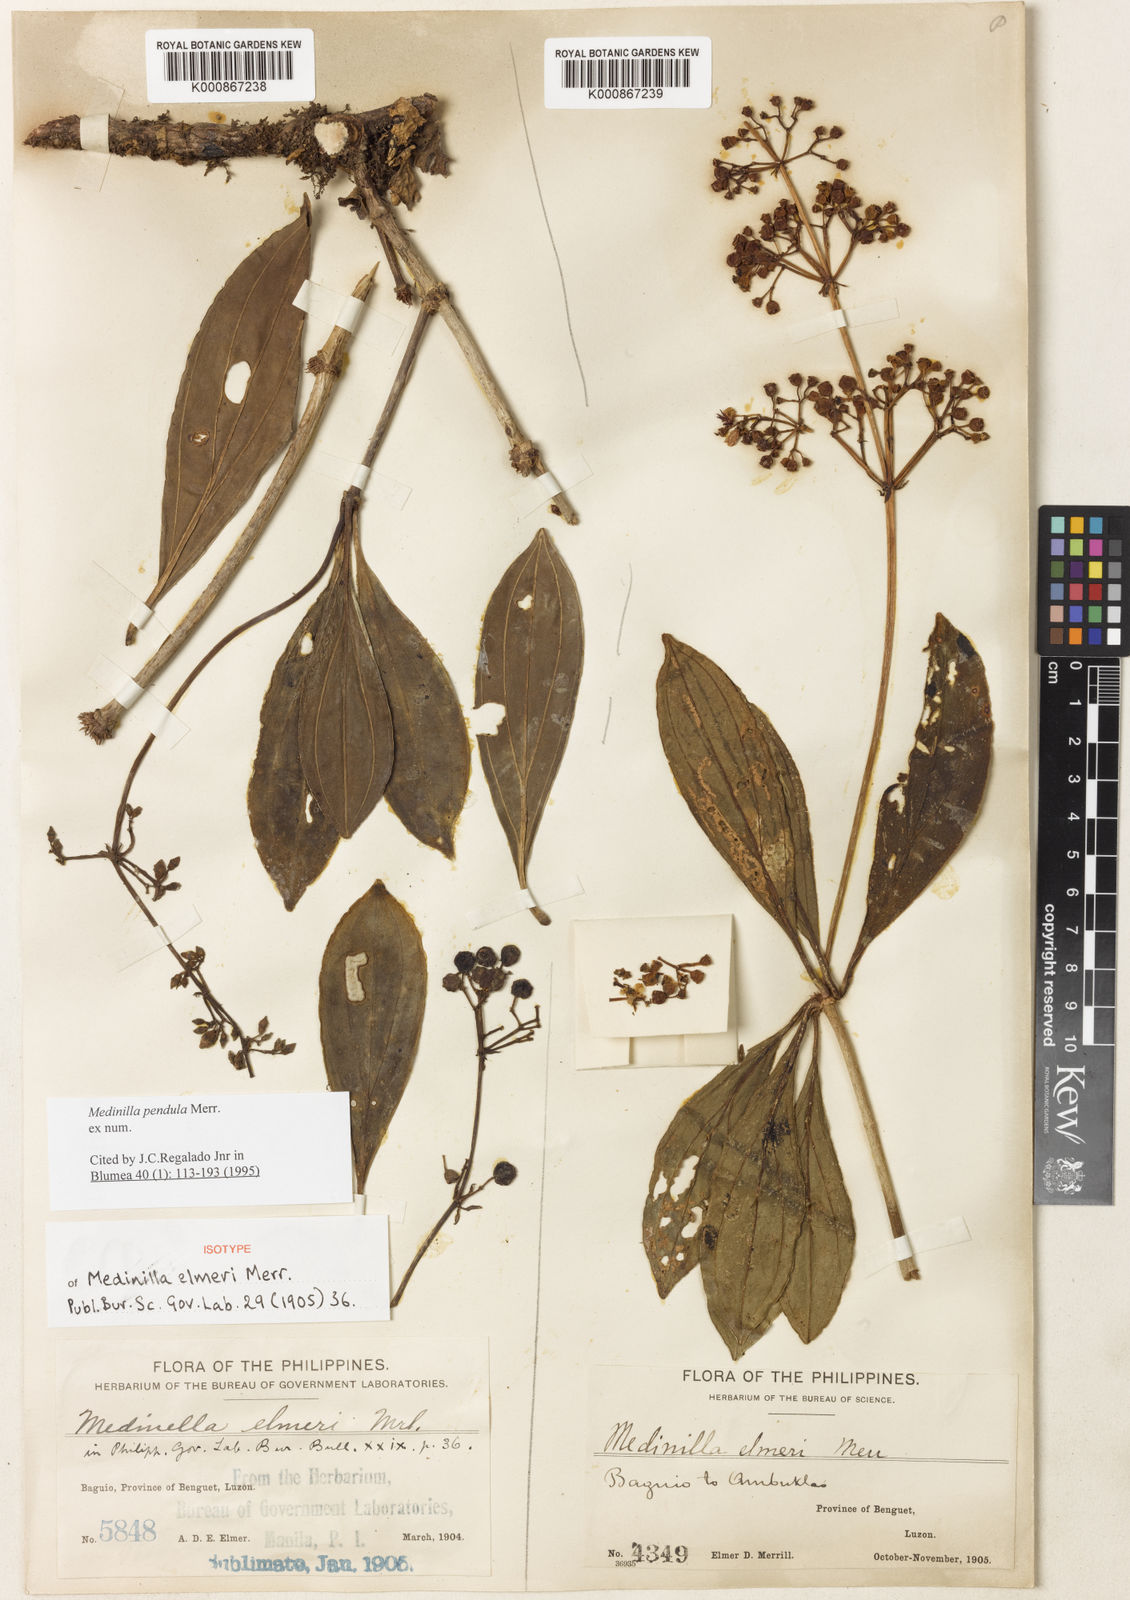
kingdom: Plantae
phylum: Tracheophyta
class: Magnoliopsida
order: Myrtales
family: Melastomataceae
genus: Medinilla
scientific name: Medinilla pendula
